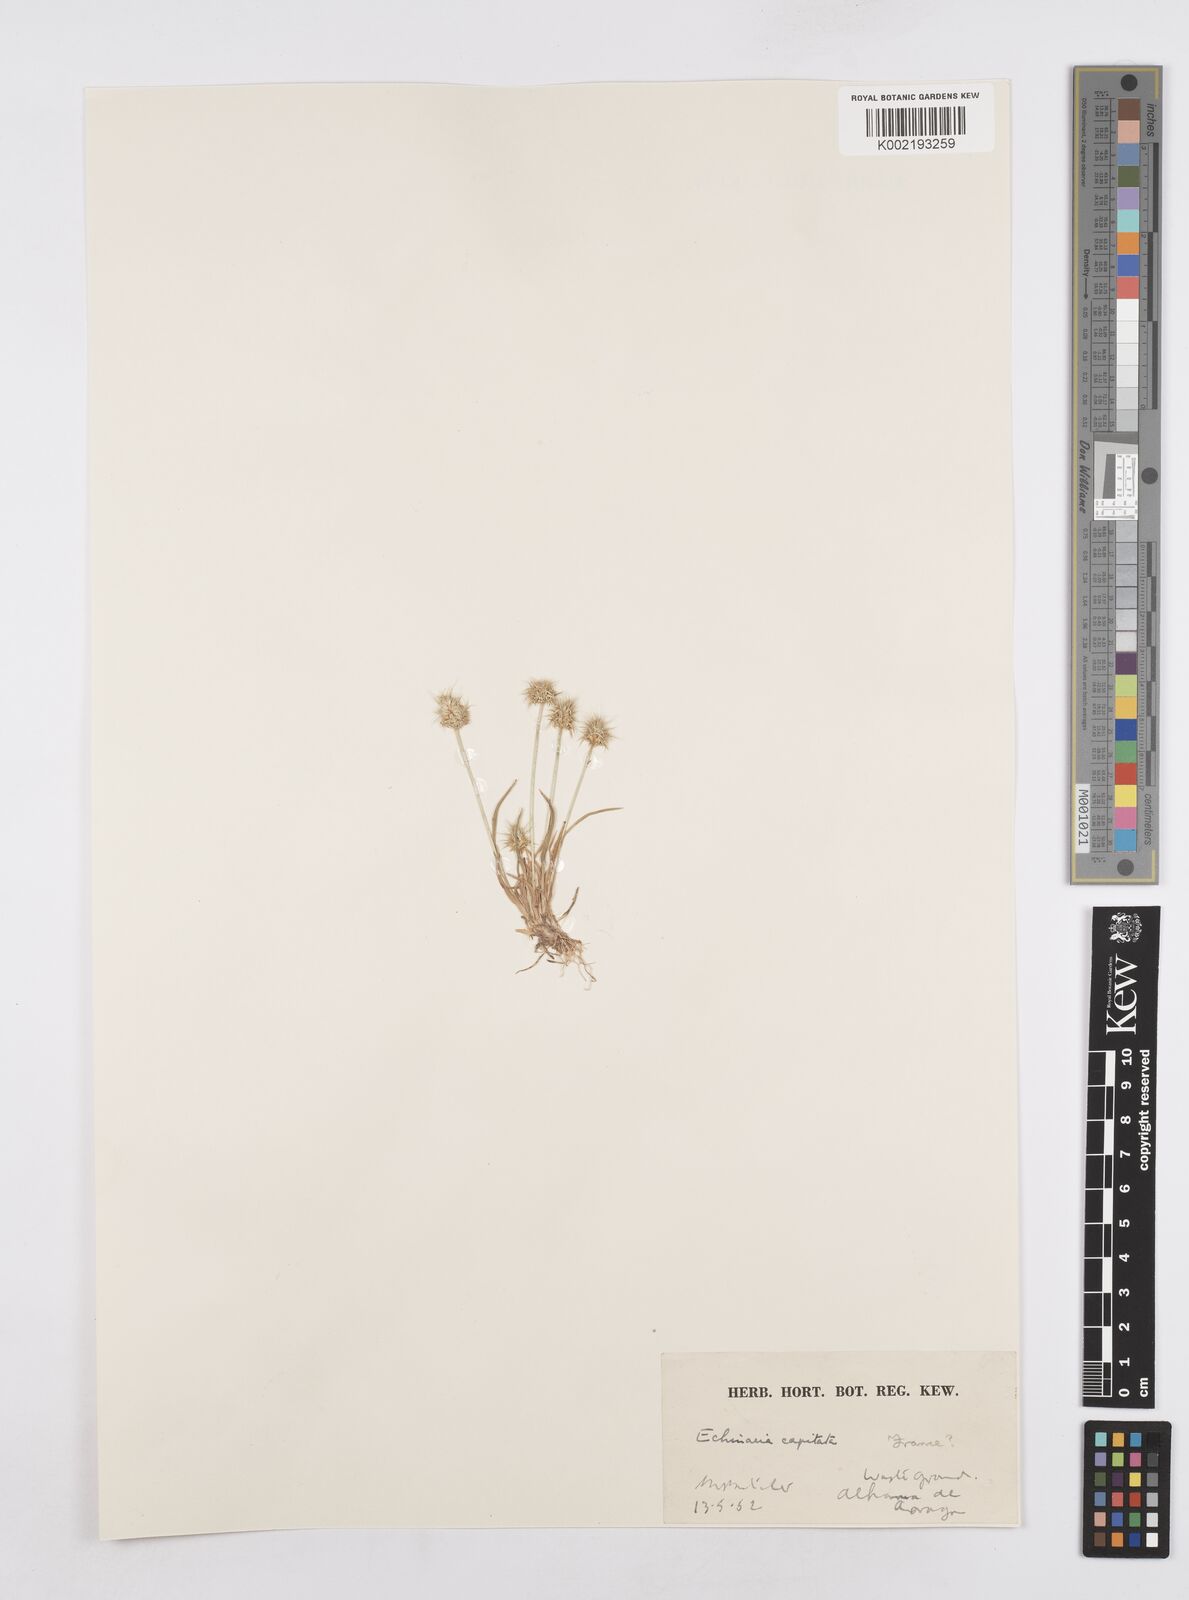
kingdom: Plantae
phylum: Tracheophyta
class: Liliopsida
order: Poales
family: Poaceae
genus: Echinaria
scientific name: Echinaria capitata
